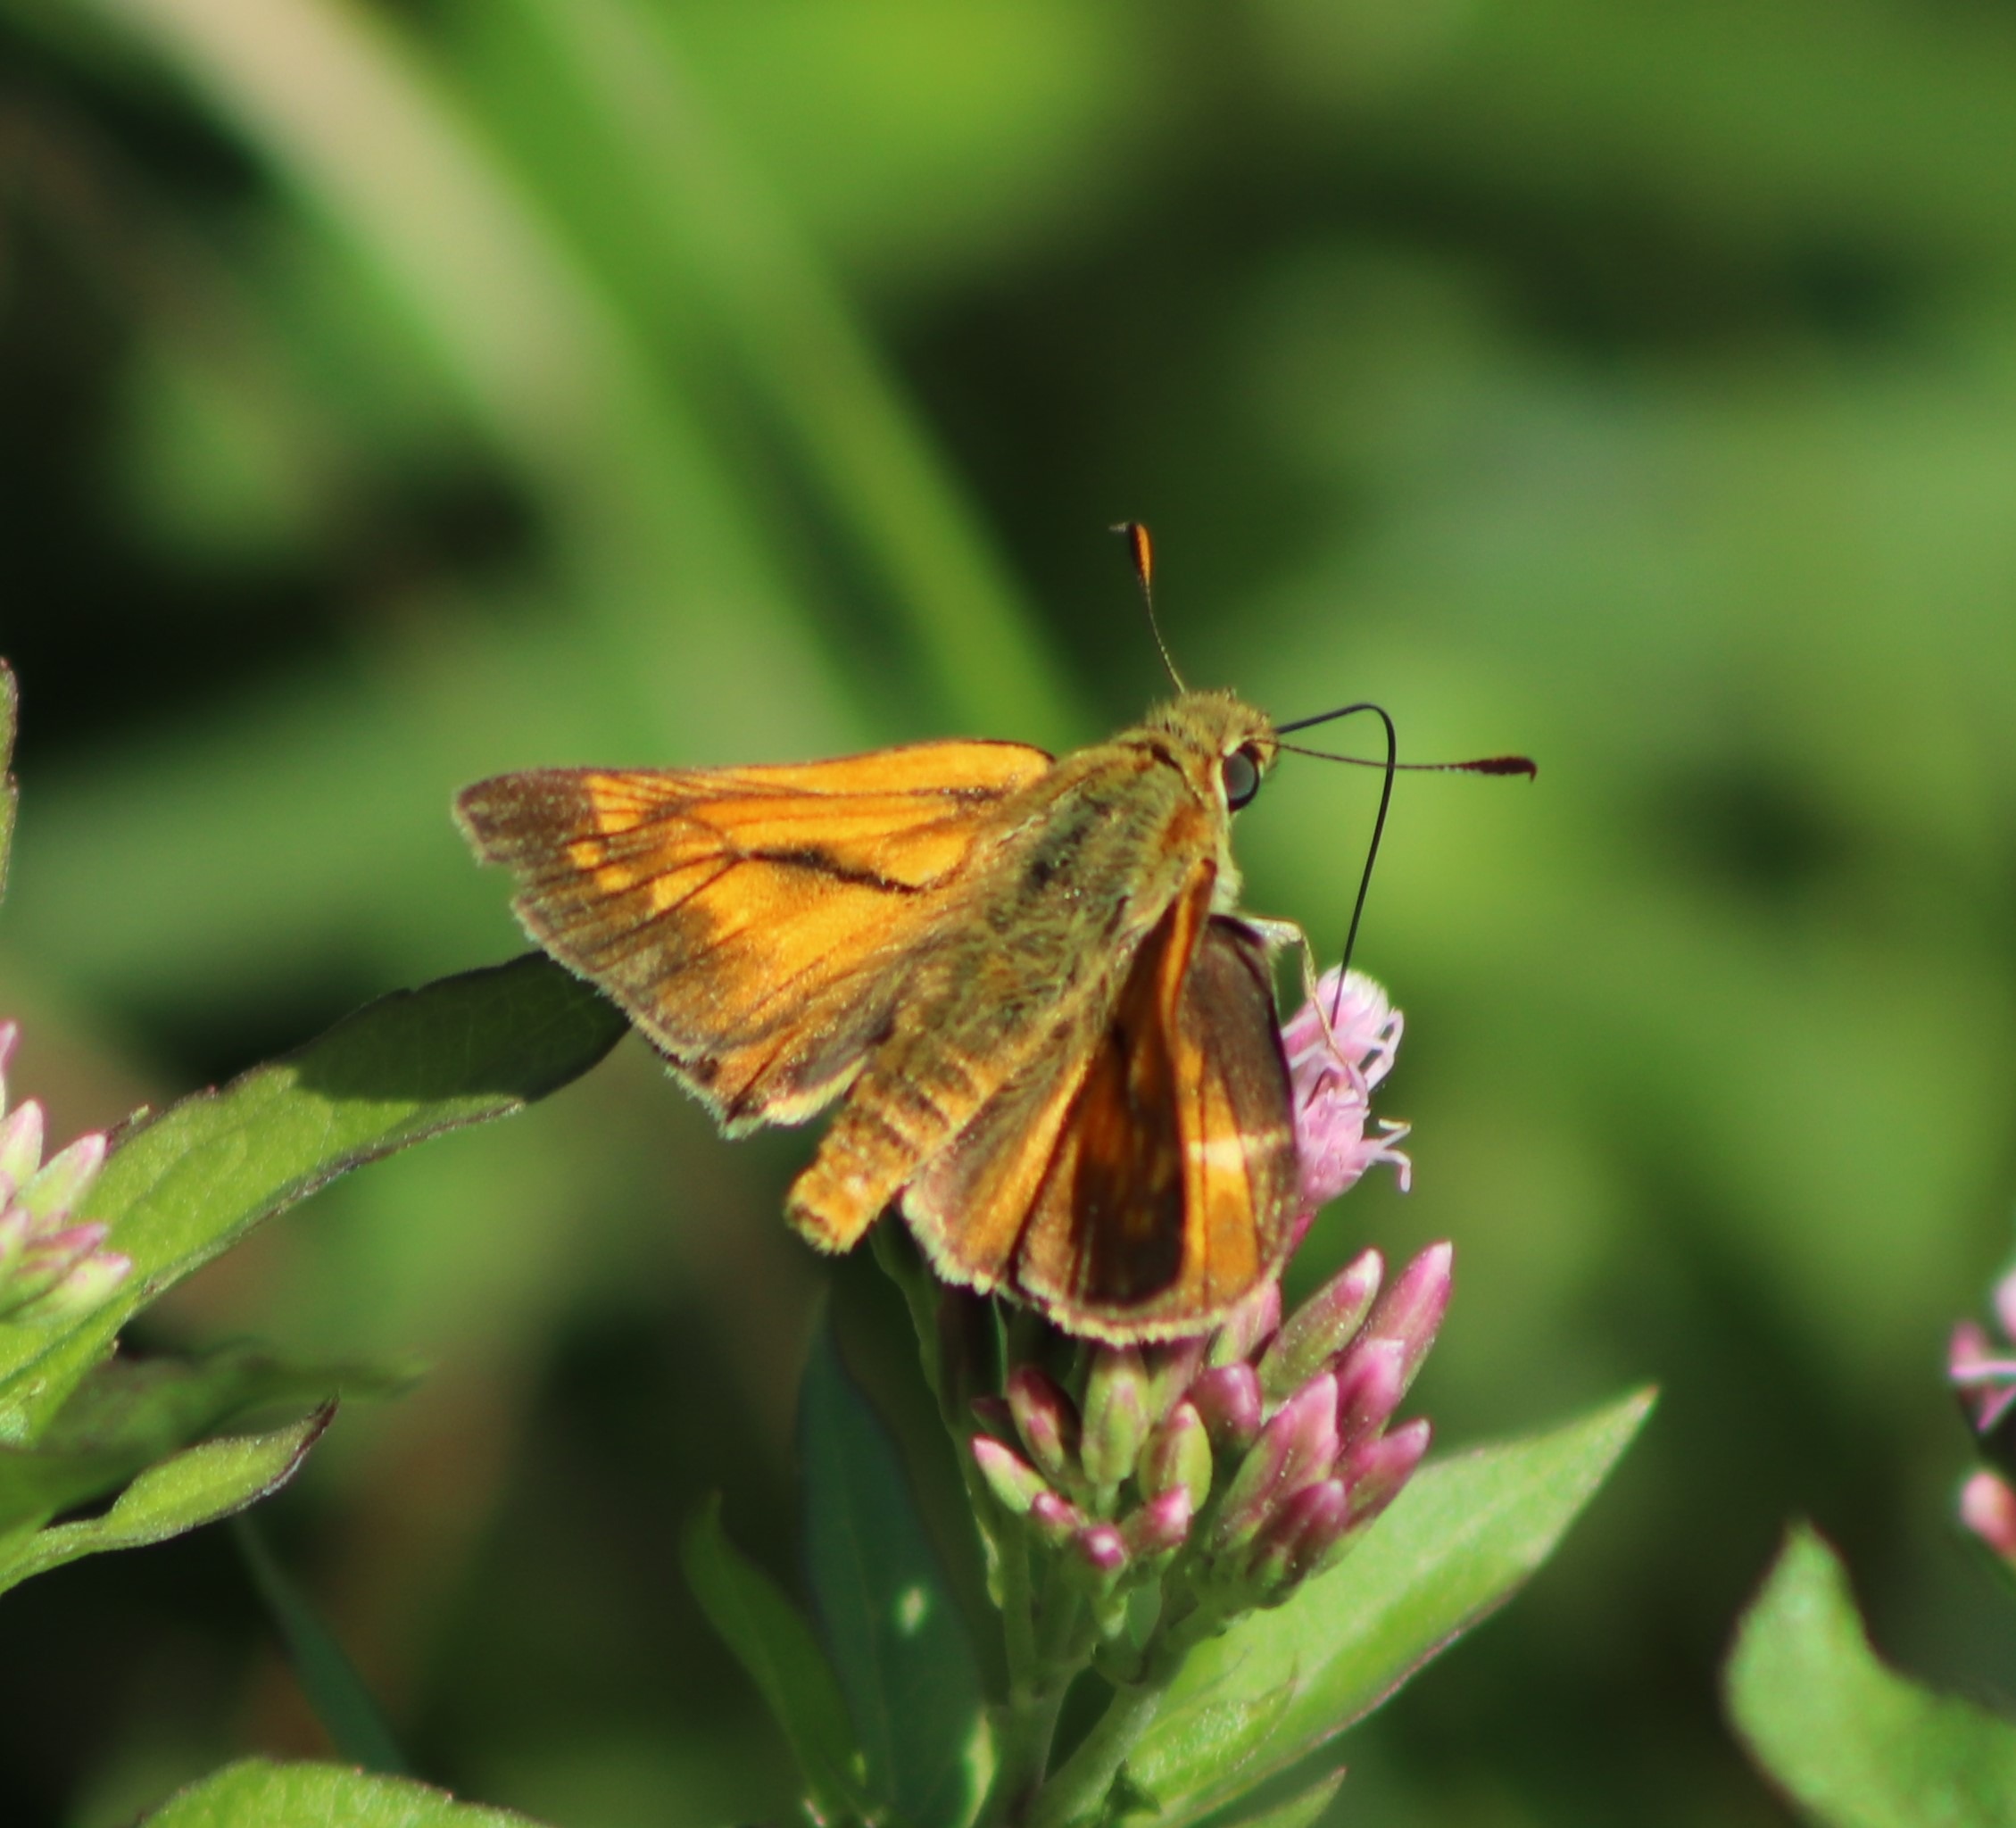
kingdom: Animalia
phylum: Arthropoda
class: Insecta
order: Lepidoptera
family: Hesperiidae
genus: Ochlodes
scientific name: Ochlodes venata
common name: Stor bredpande
